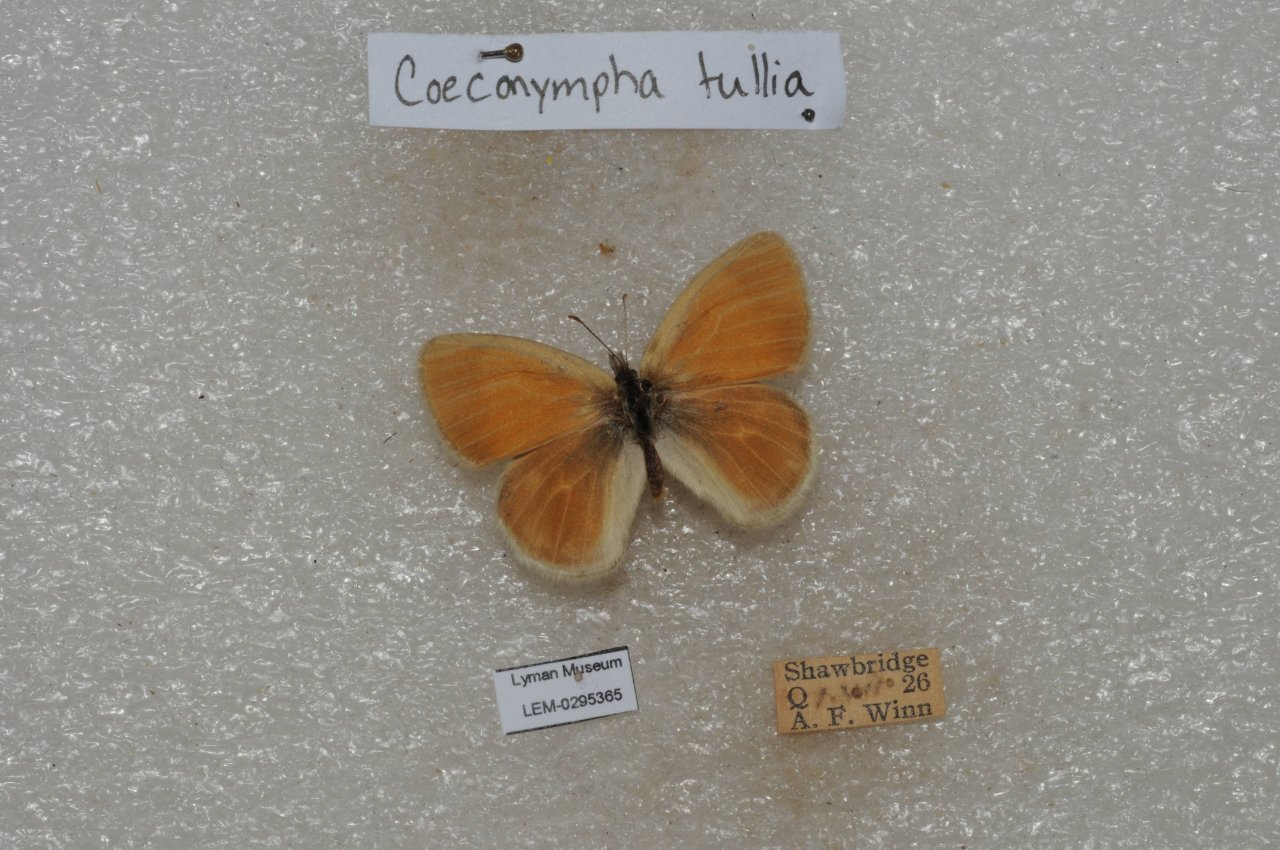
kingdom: Animalia
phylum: Arthropoda
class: Insecta
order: Lepidoptera
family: Nymphalidae
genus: Coenonympha
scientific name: Coenonympha tullia
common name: Large Heath
